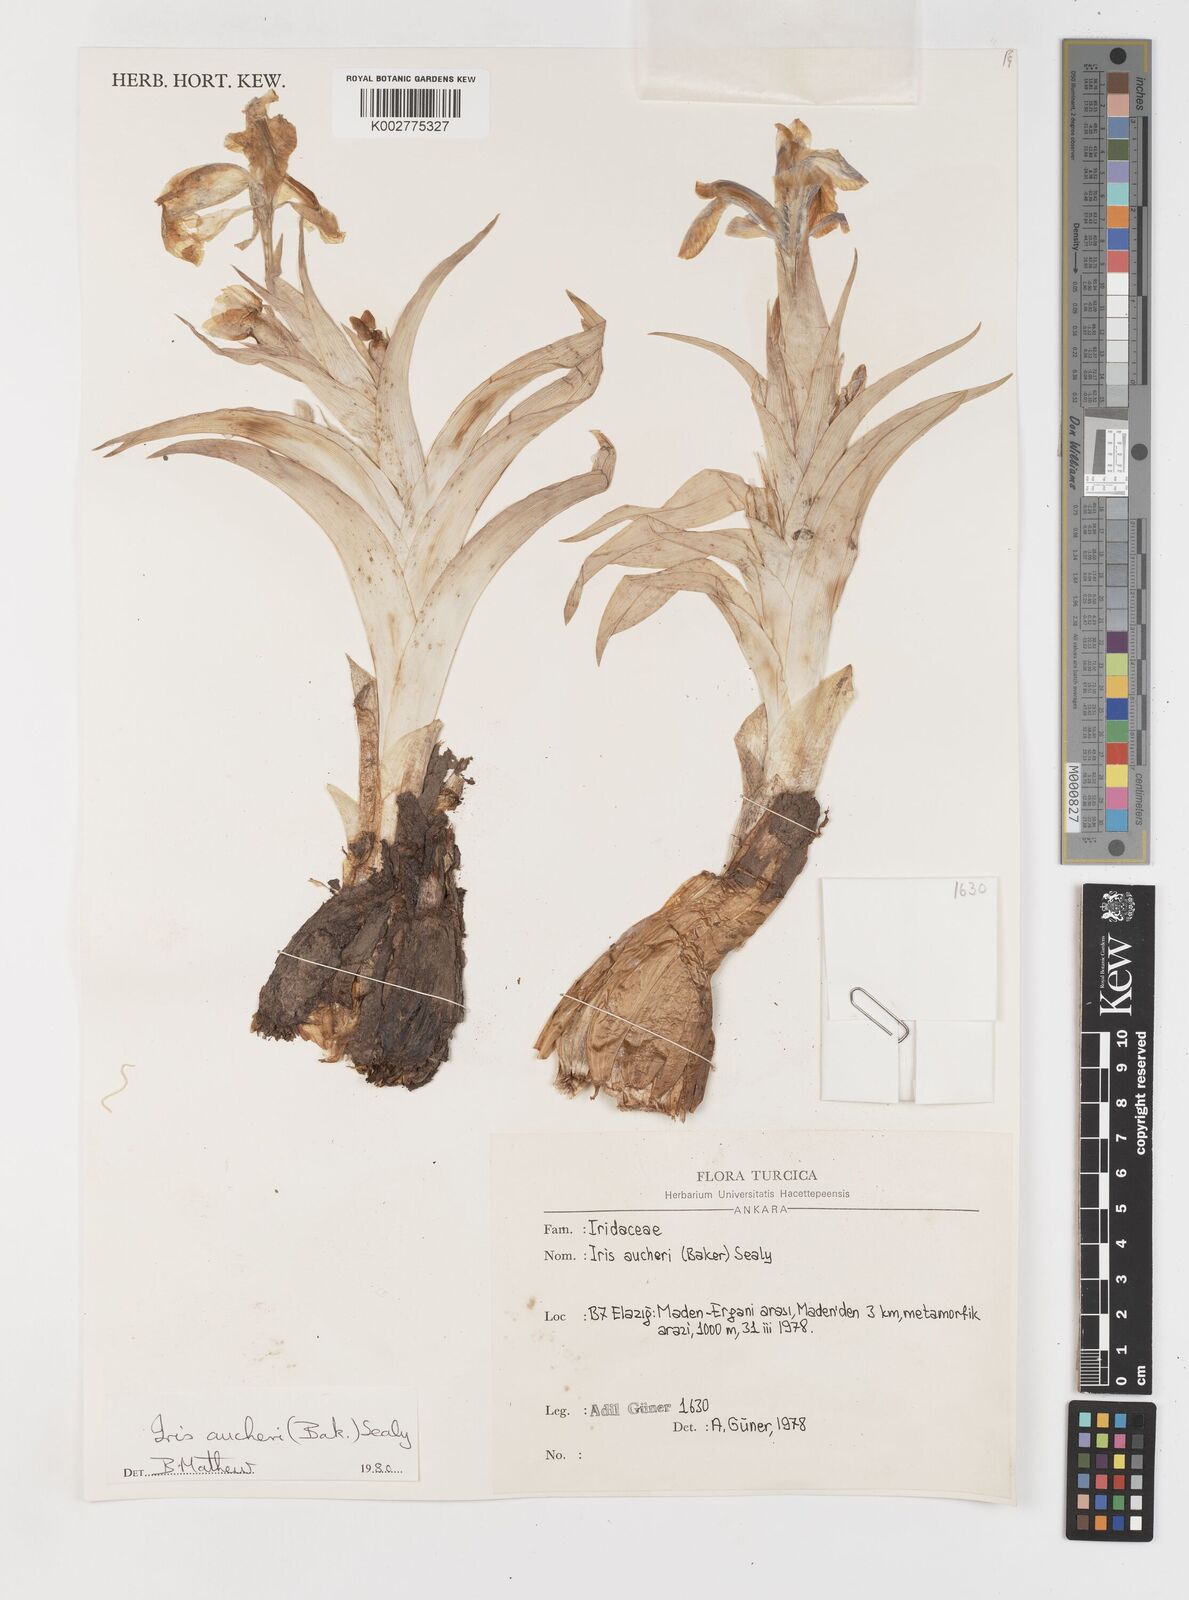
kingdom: Plantae
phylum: Tracheophyta
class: Liliopsida
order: Asparagales
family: Iridaceae
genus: Iris
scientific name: Iris aucheri
